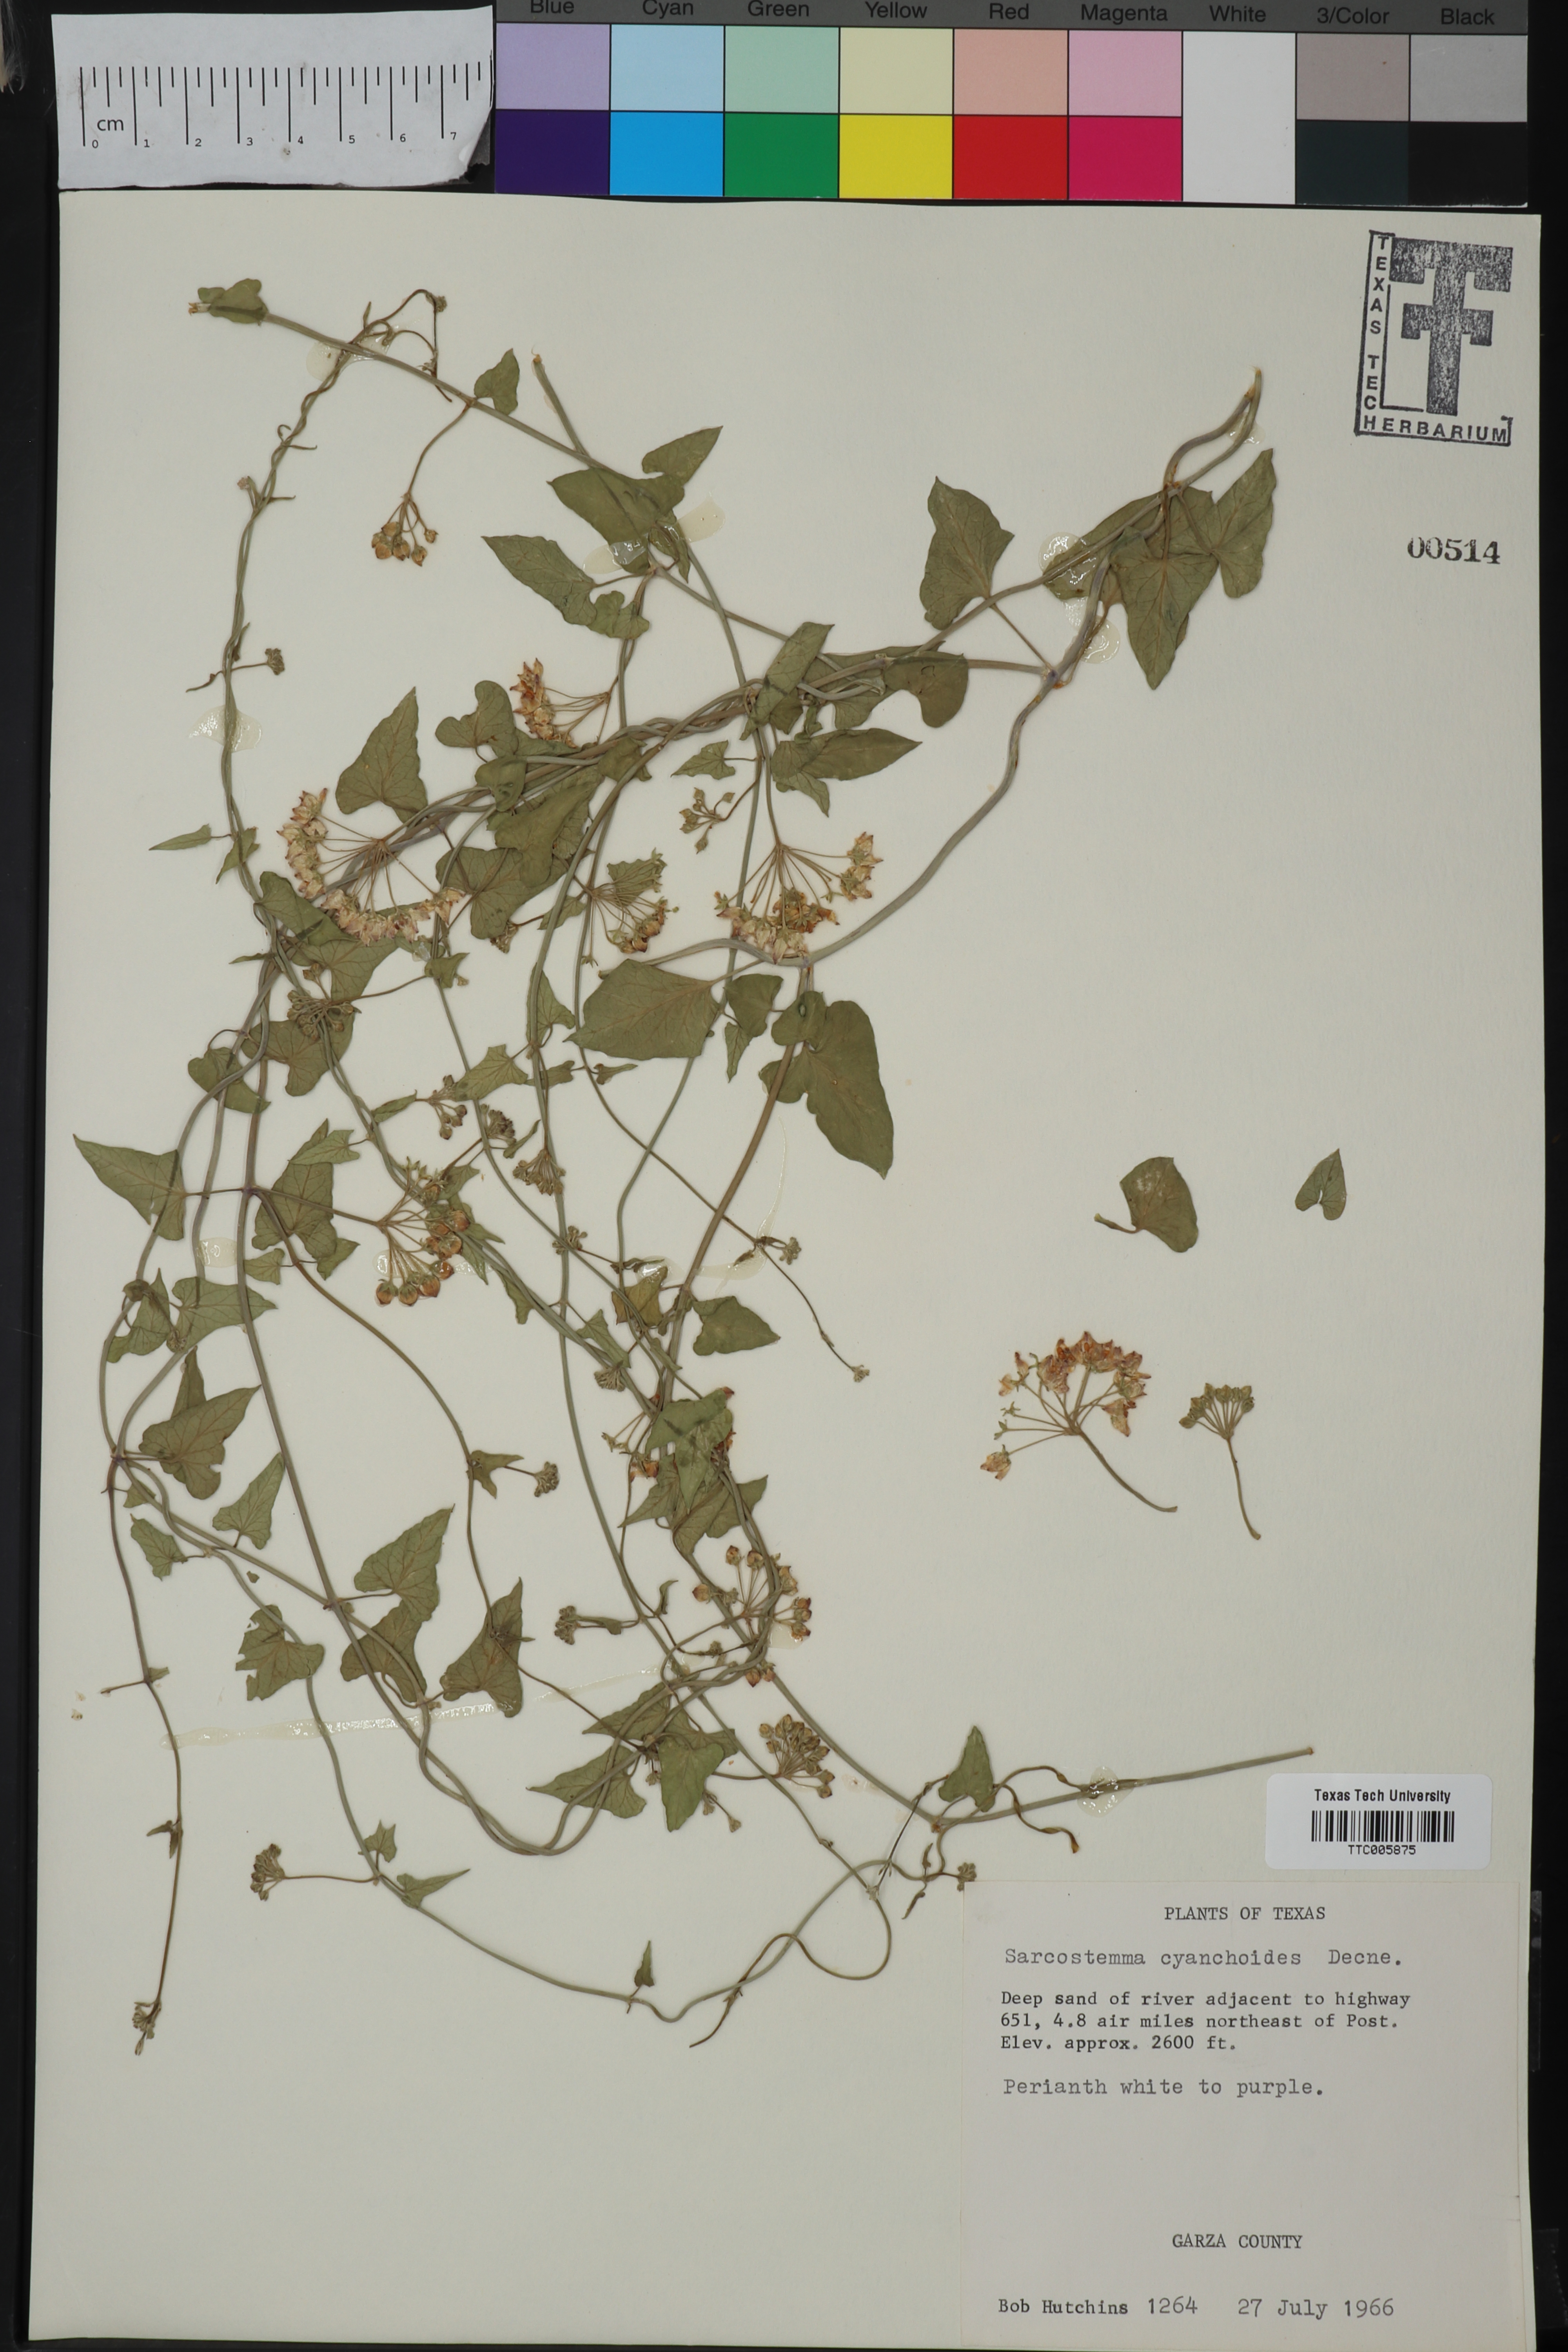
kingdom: Plantae
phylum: Tracheophyta
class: Magnoliopsida
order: Gentianales
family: Apocynaceae
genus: Funastrum
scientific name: Funastrum cynanchoides
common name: Climbing-milkweed
